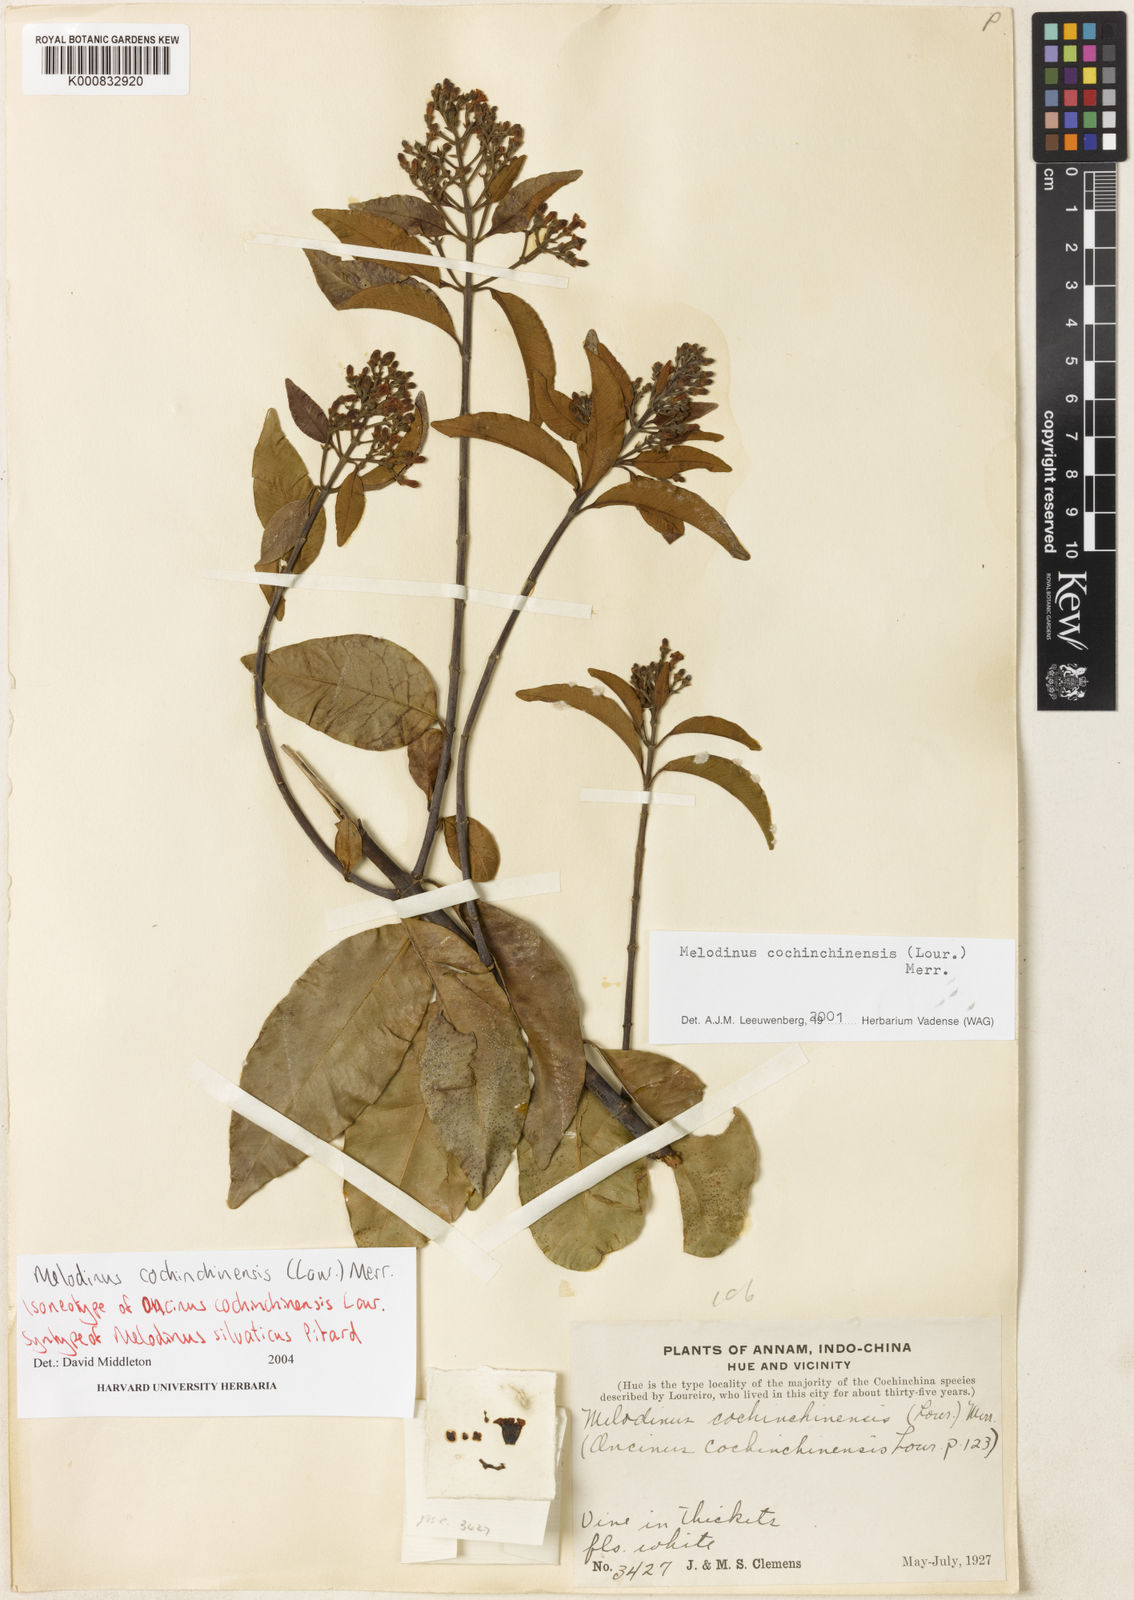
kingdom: Plantae
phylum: Tracheophyta
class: Magnoliopsida
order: Gentianales
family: Apocynaceae
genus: Melodinus
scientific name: Melodinus cochinchinensis
